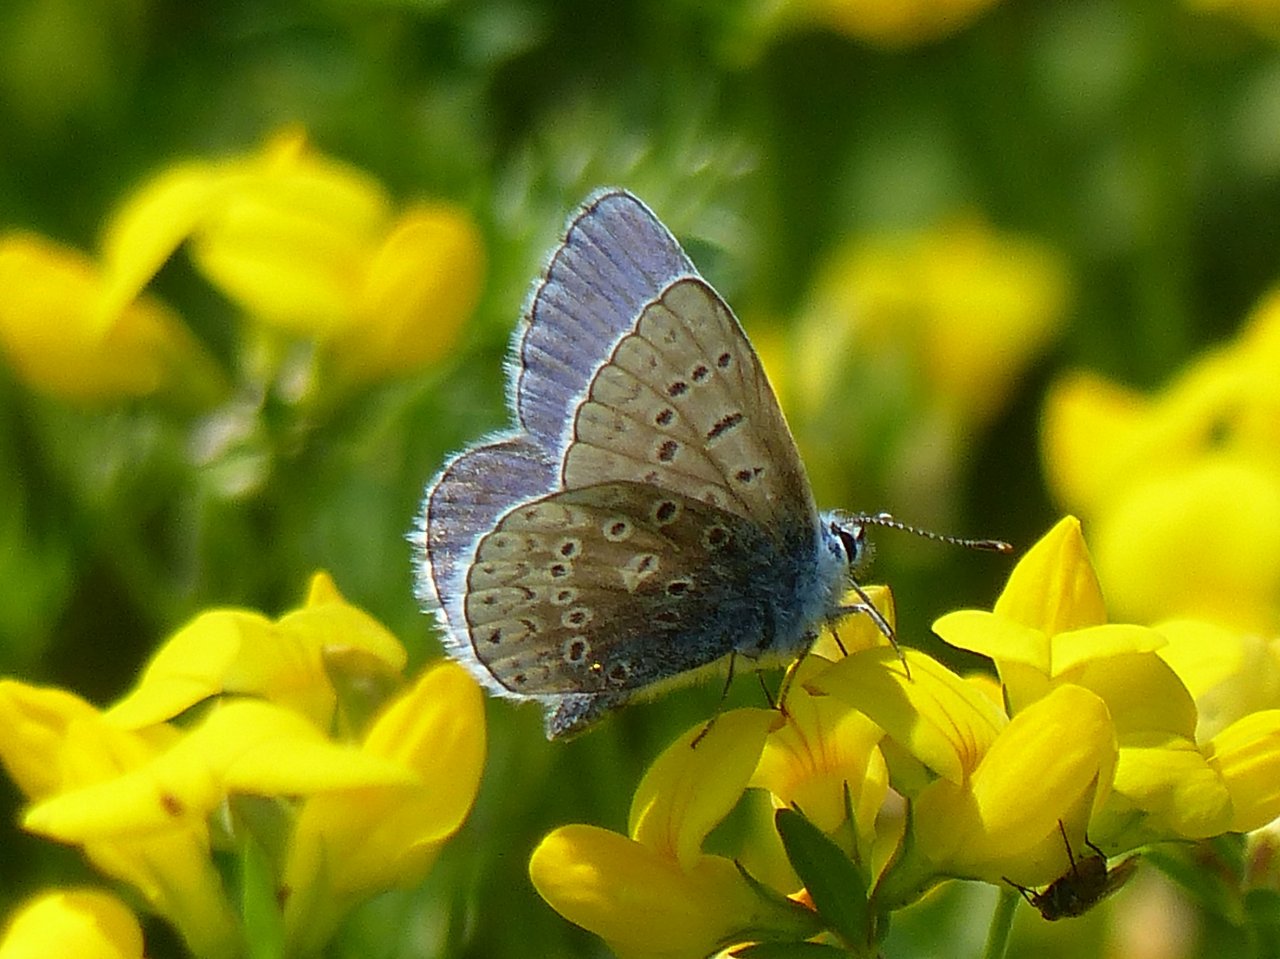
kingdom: Animalia
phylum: Arthropoda
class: Insecta
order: Lepidoptera
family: Lycaenidae
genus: Polyommatus
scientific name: Polyommatus icarus
